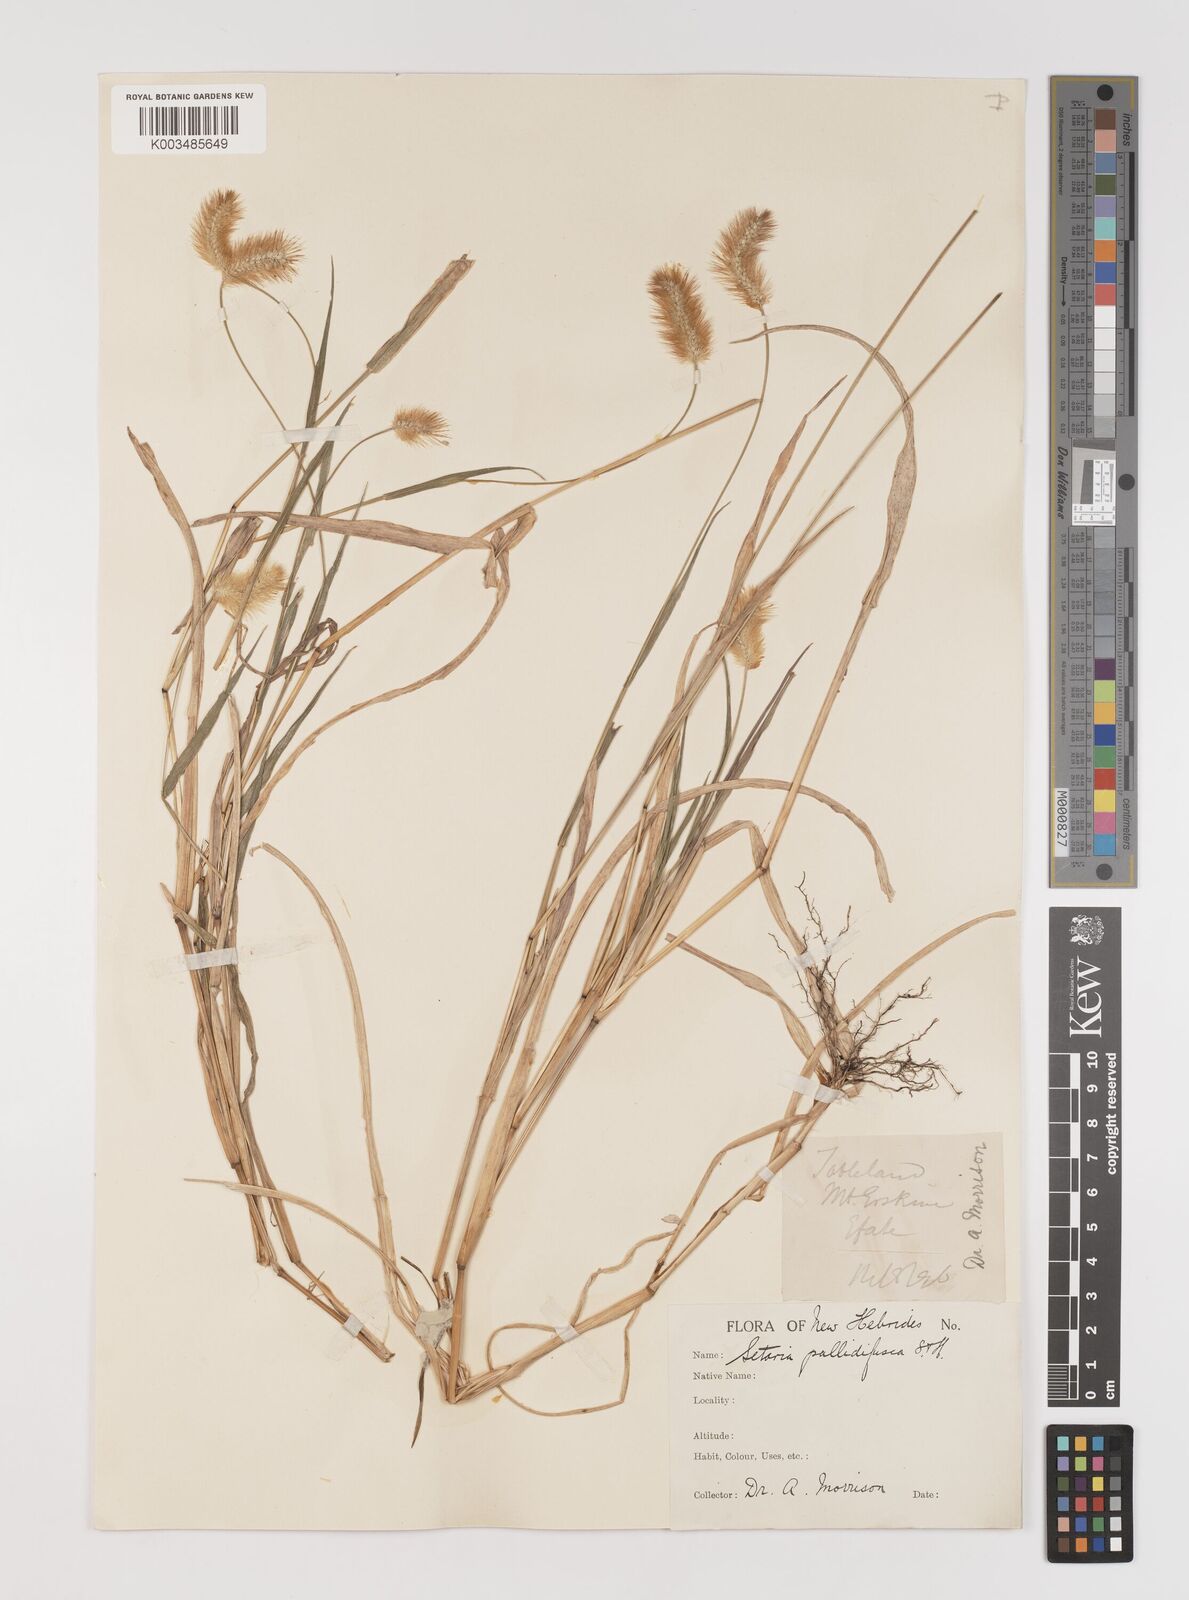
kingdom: Plantae
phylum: Tracheophyta
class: Liliopsida
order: Poales
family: Poaceae
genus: Setaria
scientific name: Setaria pumila
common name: Yellow bristle-grass
